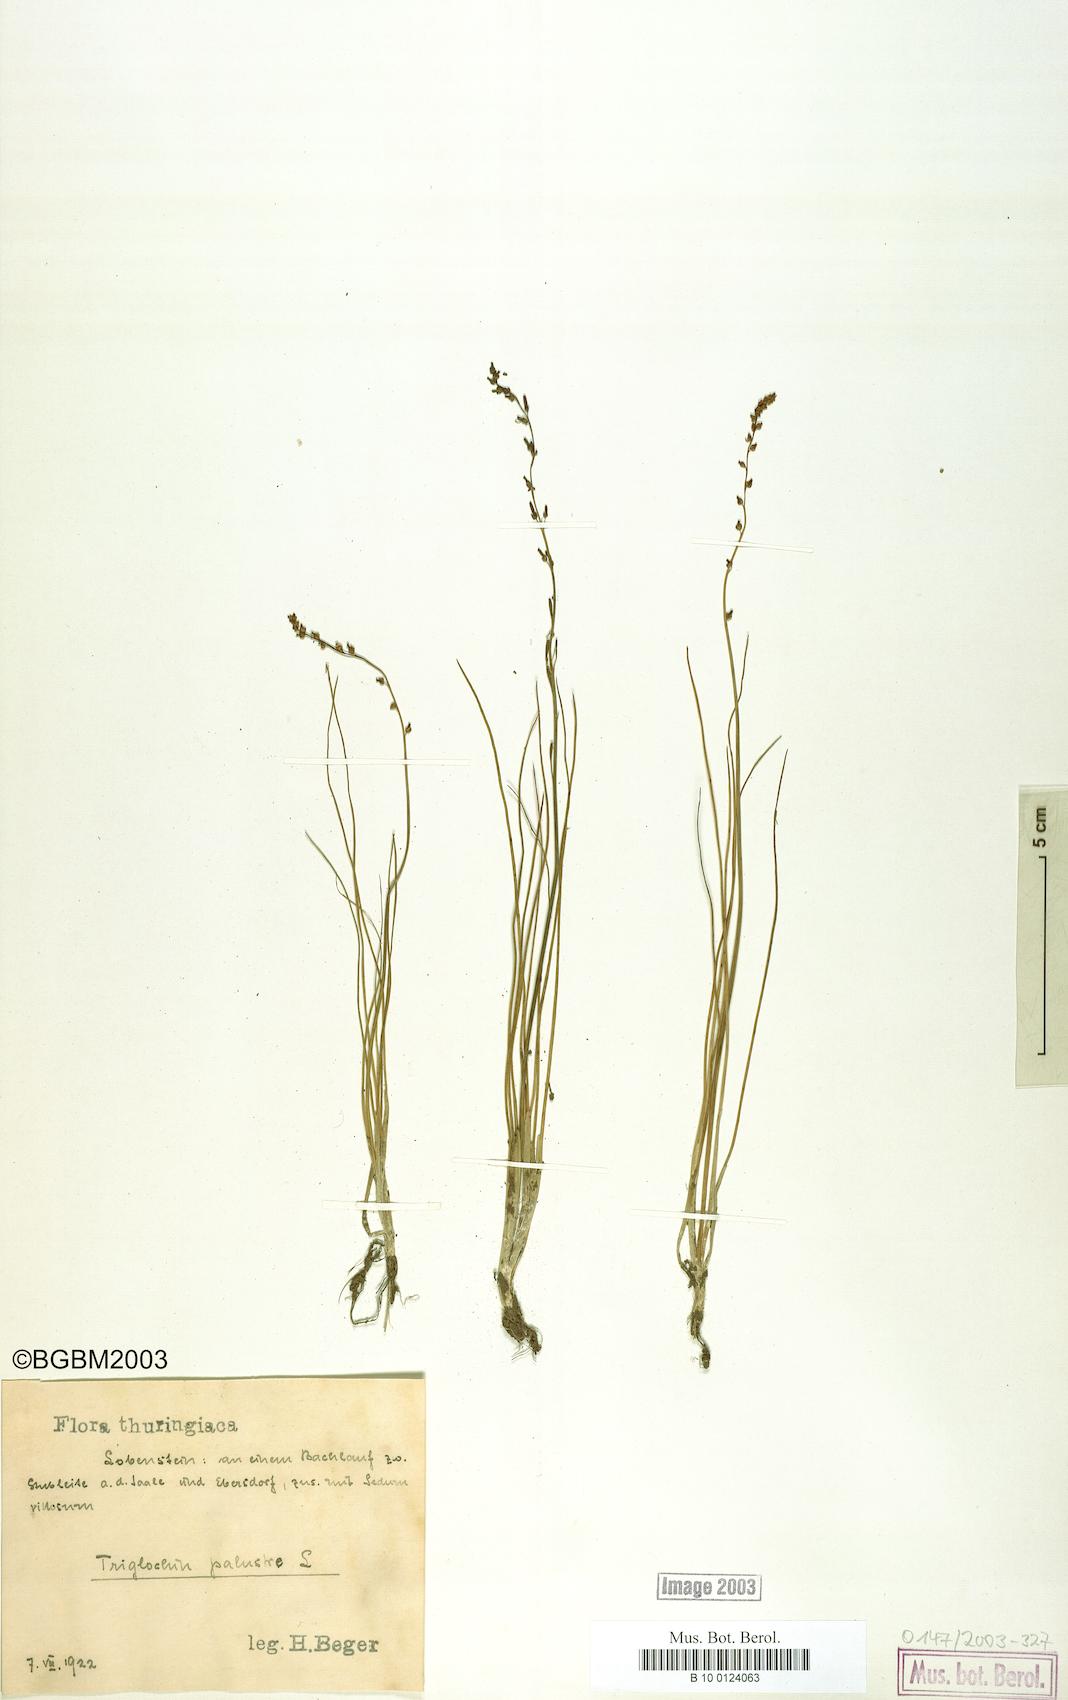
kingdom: Plantae
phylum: Tracheophyta
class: Liliopsida
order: Alismatales
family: Juncaginaceae
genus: Triglochin
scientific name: Triglochin palustris
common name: Marsh arrowgrass
